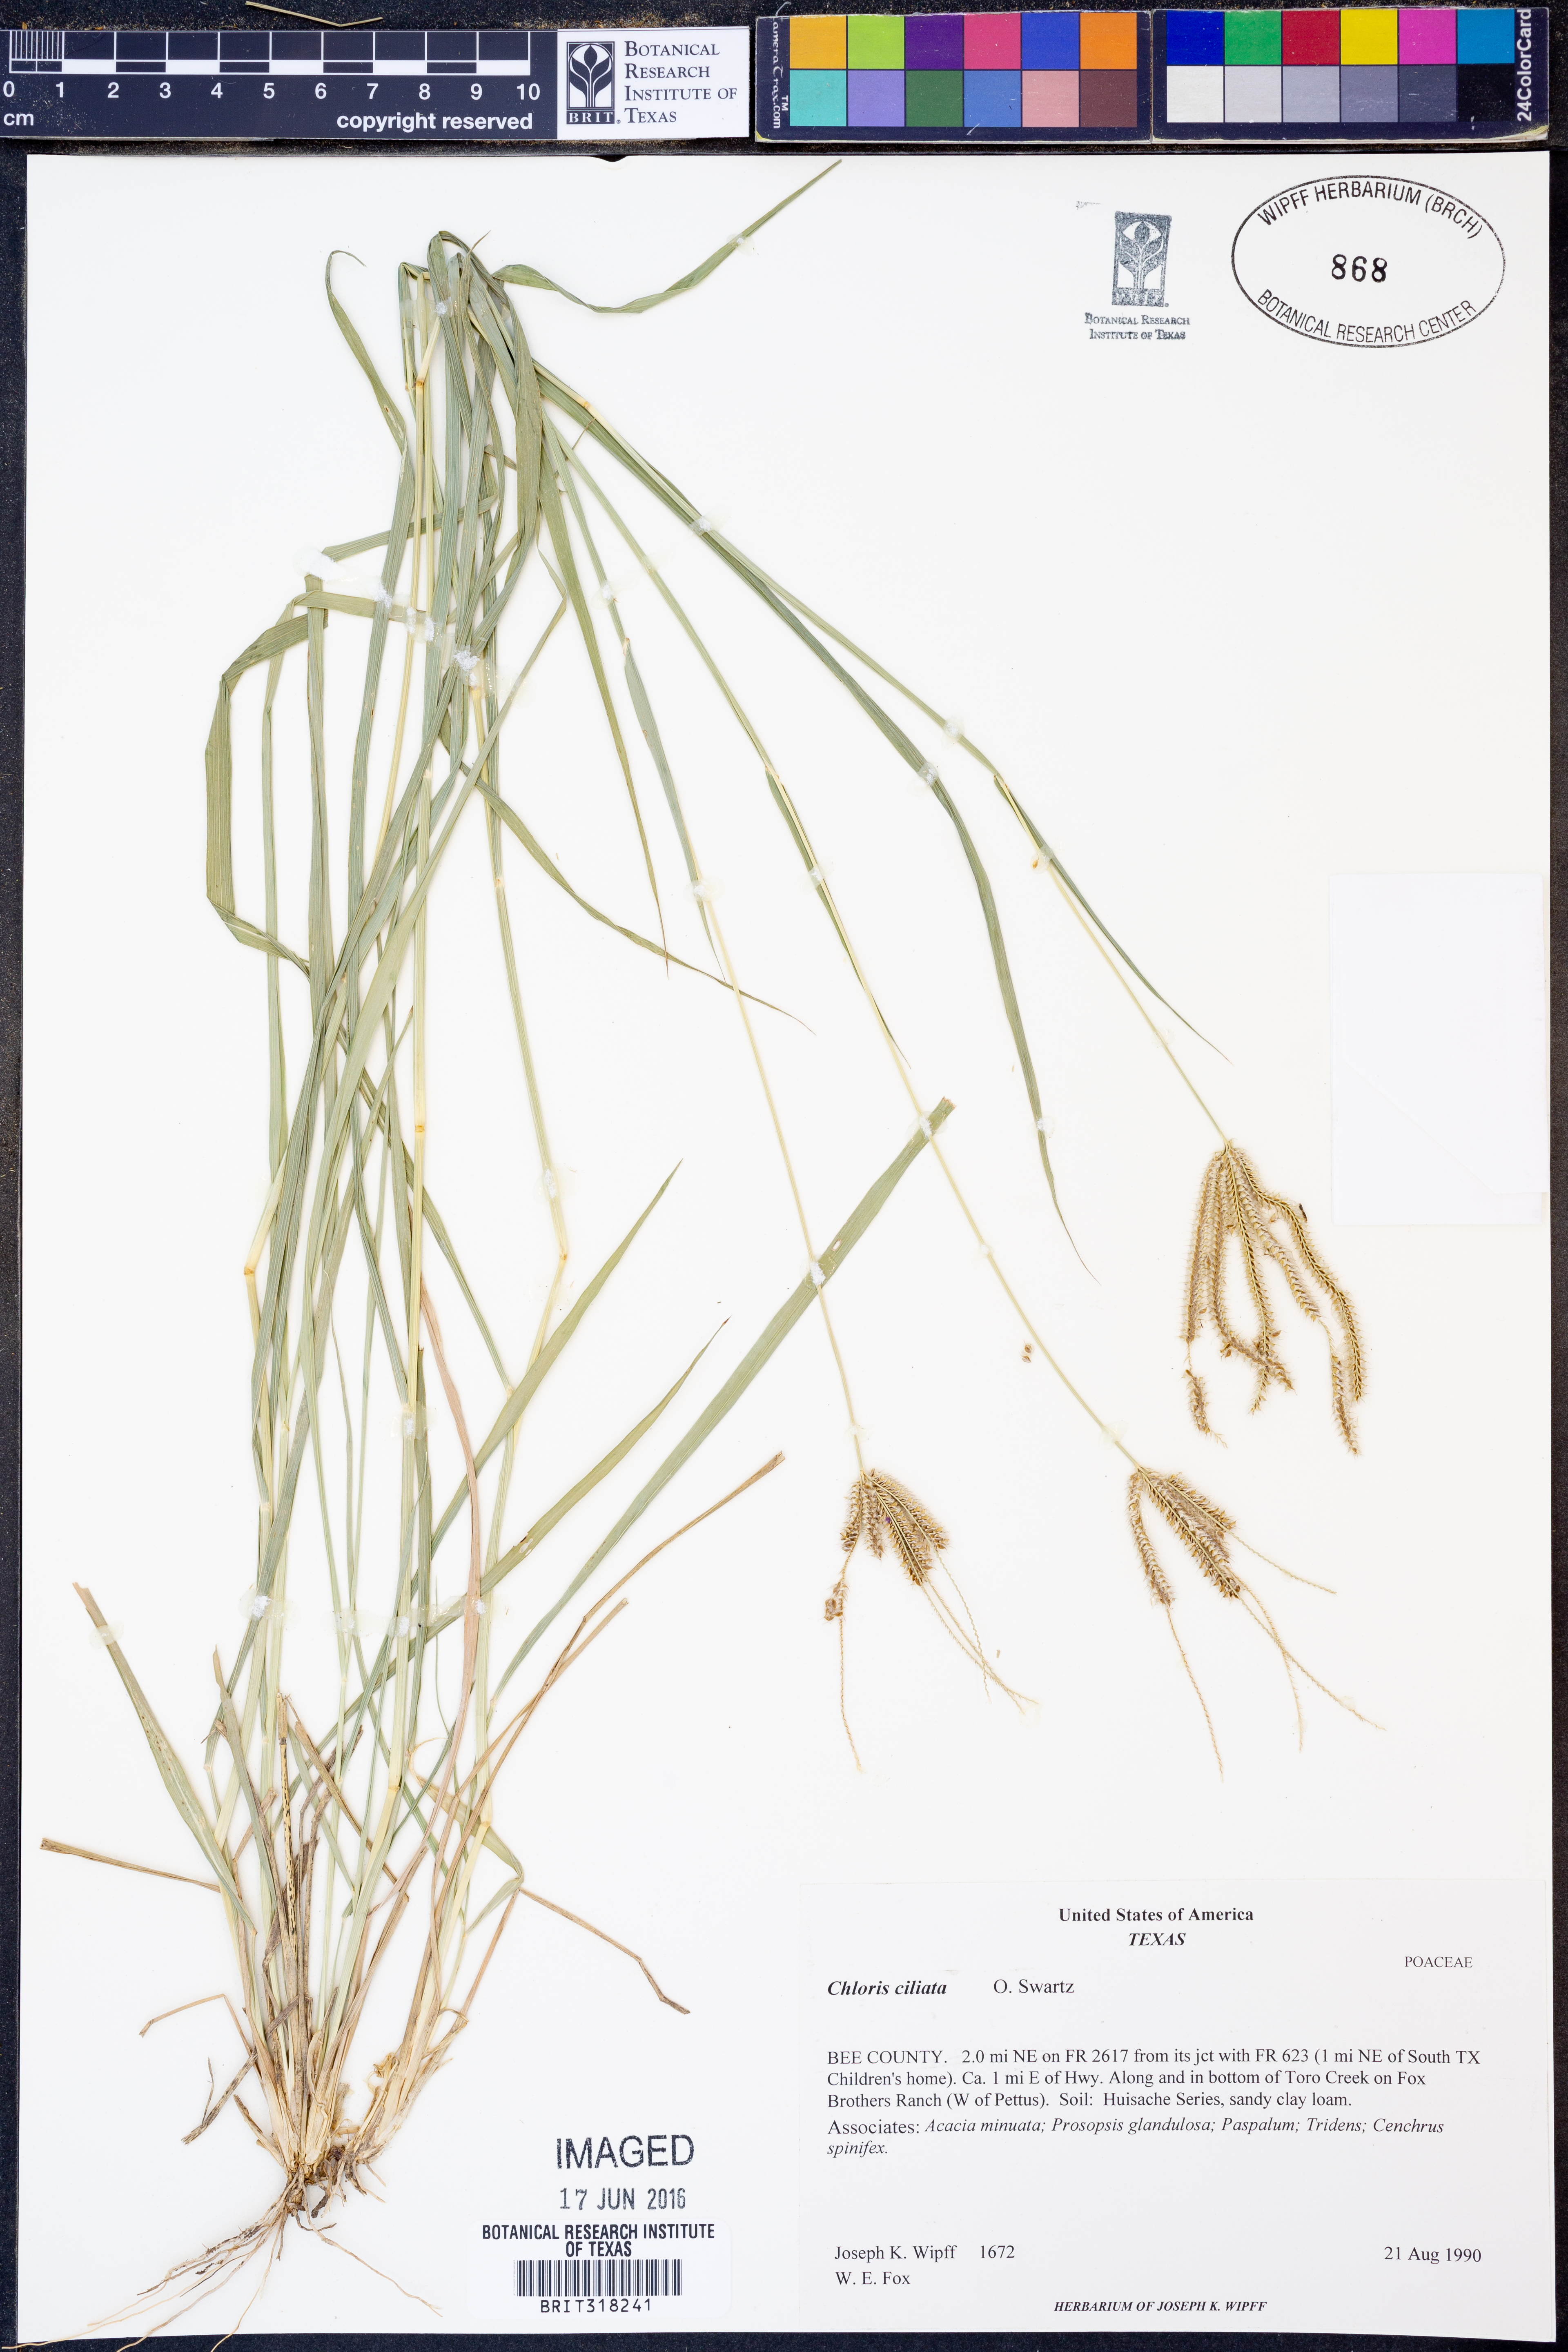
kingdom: Plantae
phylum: Tracheophyta
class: Liliopsida
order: Poales
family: Poaceae
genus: Stapfochloa
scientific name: Stapfochloa ciliata
